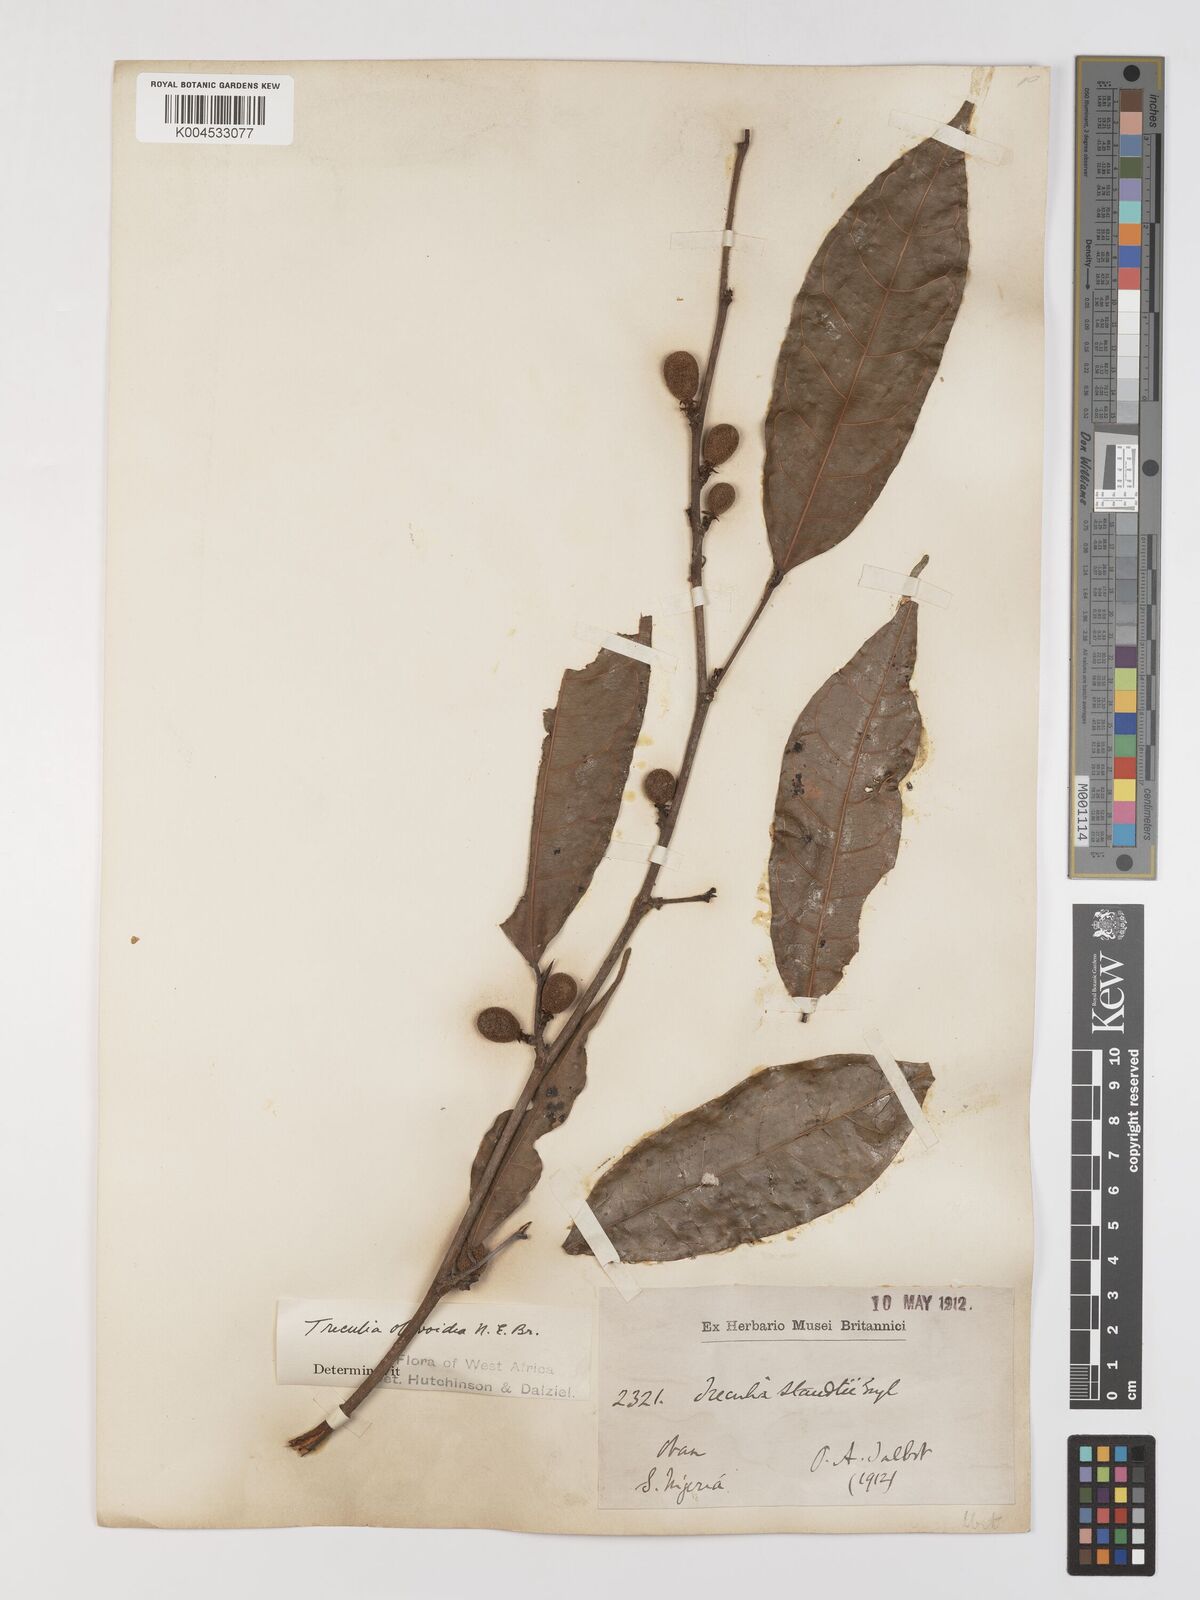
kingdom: Plantae
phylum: Tracheophyta
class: Magnoliopsida
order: Rosales
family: Moraceae
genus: Treculia
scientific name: Treculia obovoidea
